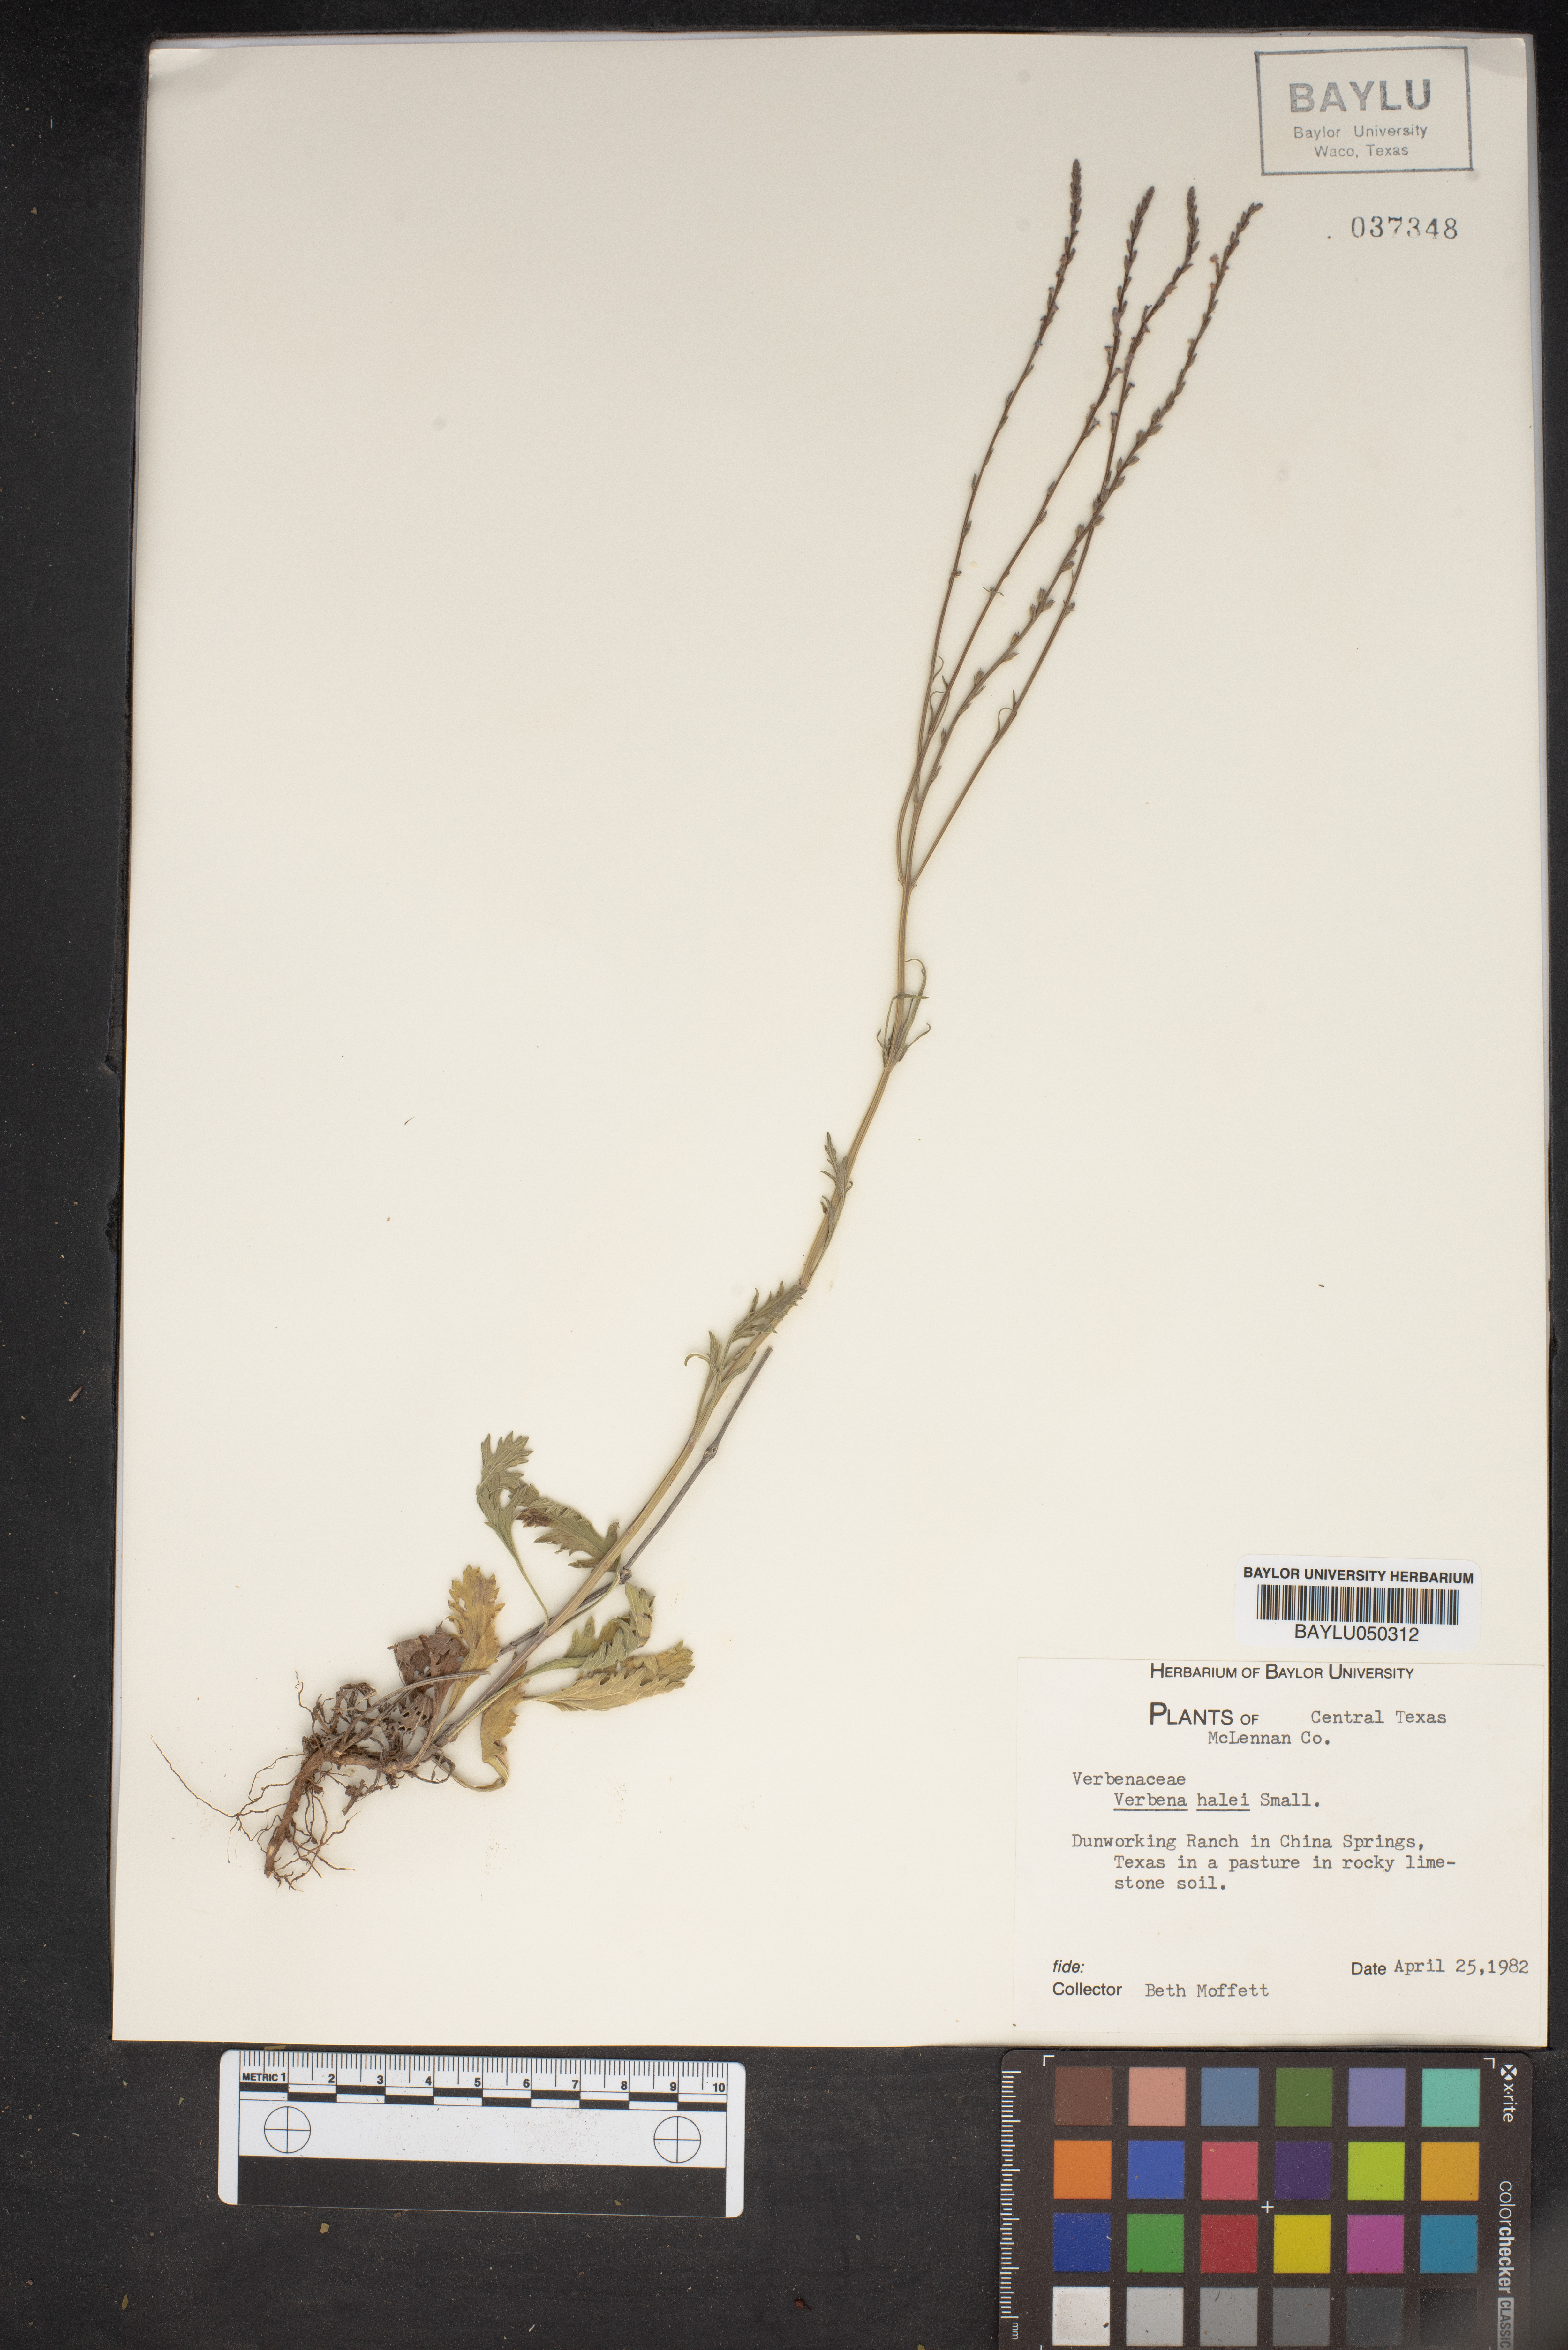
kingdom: Plantae
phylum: Tracheophyta
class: Magnoliopsida
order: Lamiales
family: Verbenaceae
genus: Verbena
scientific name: Verbena halei
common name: Texas vervain
